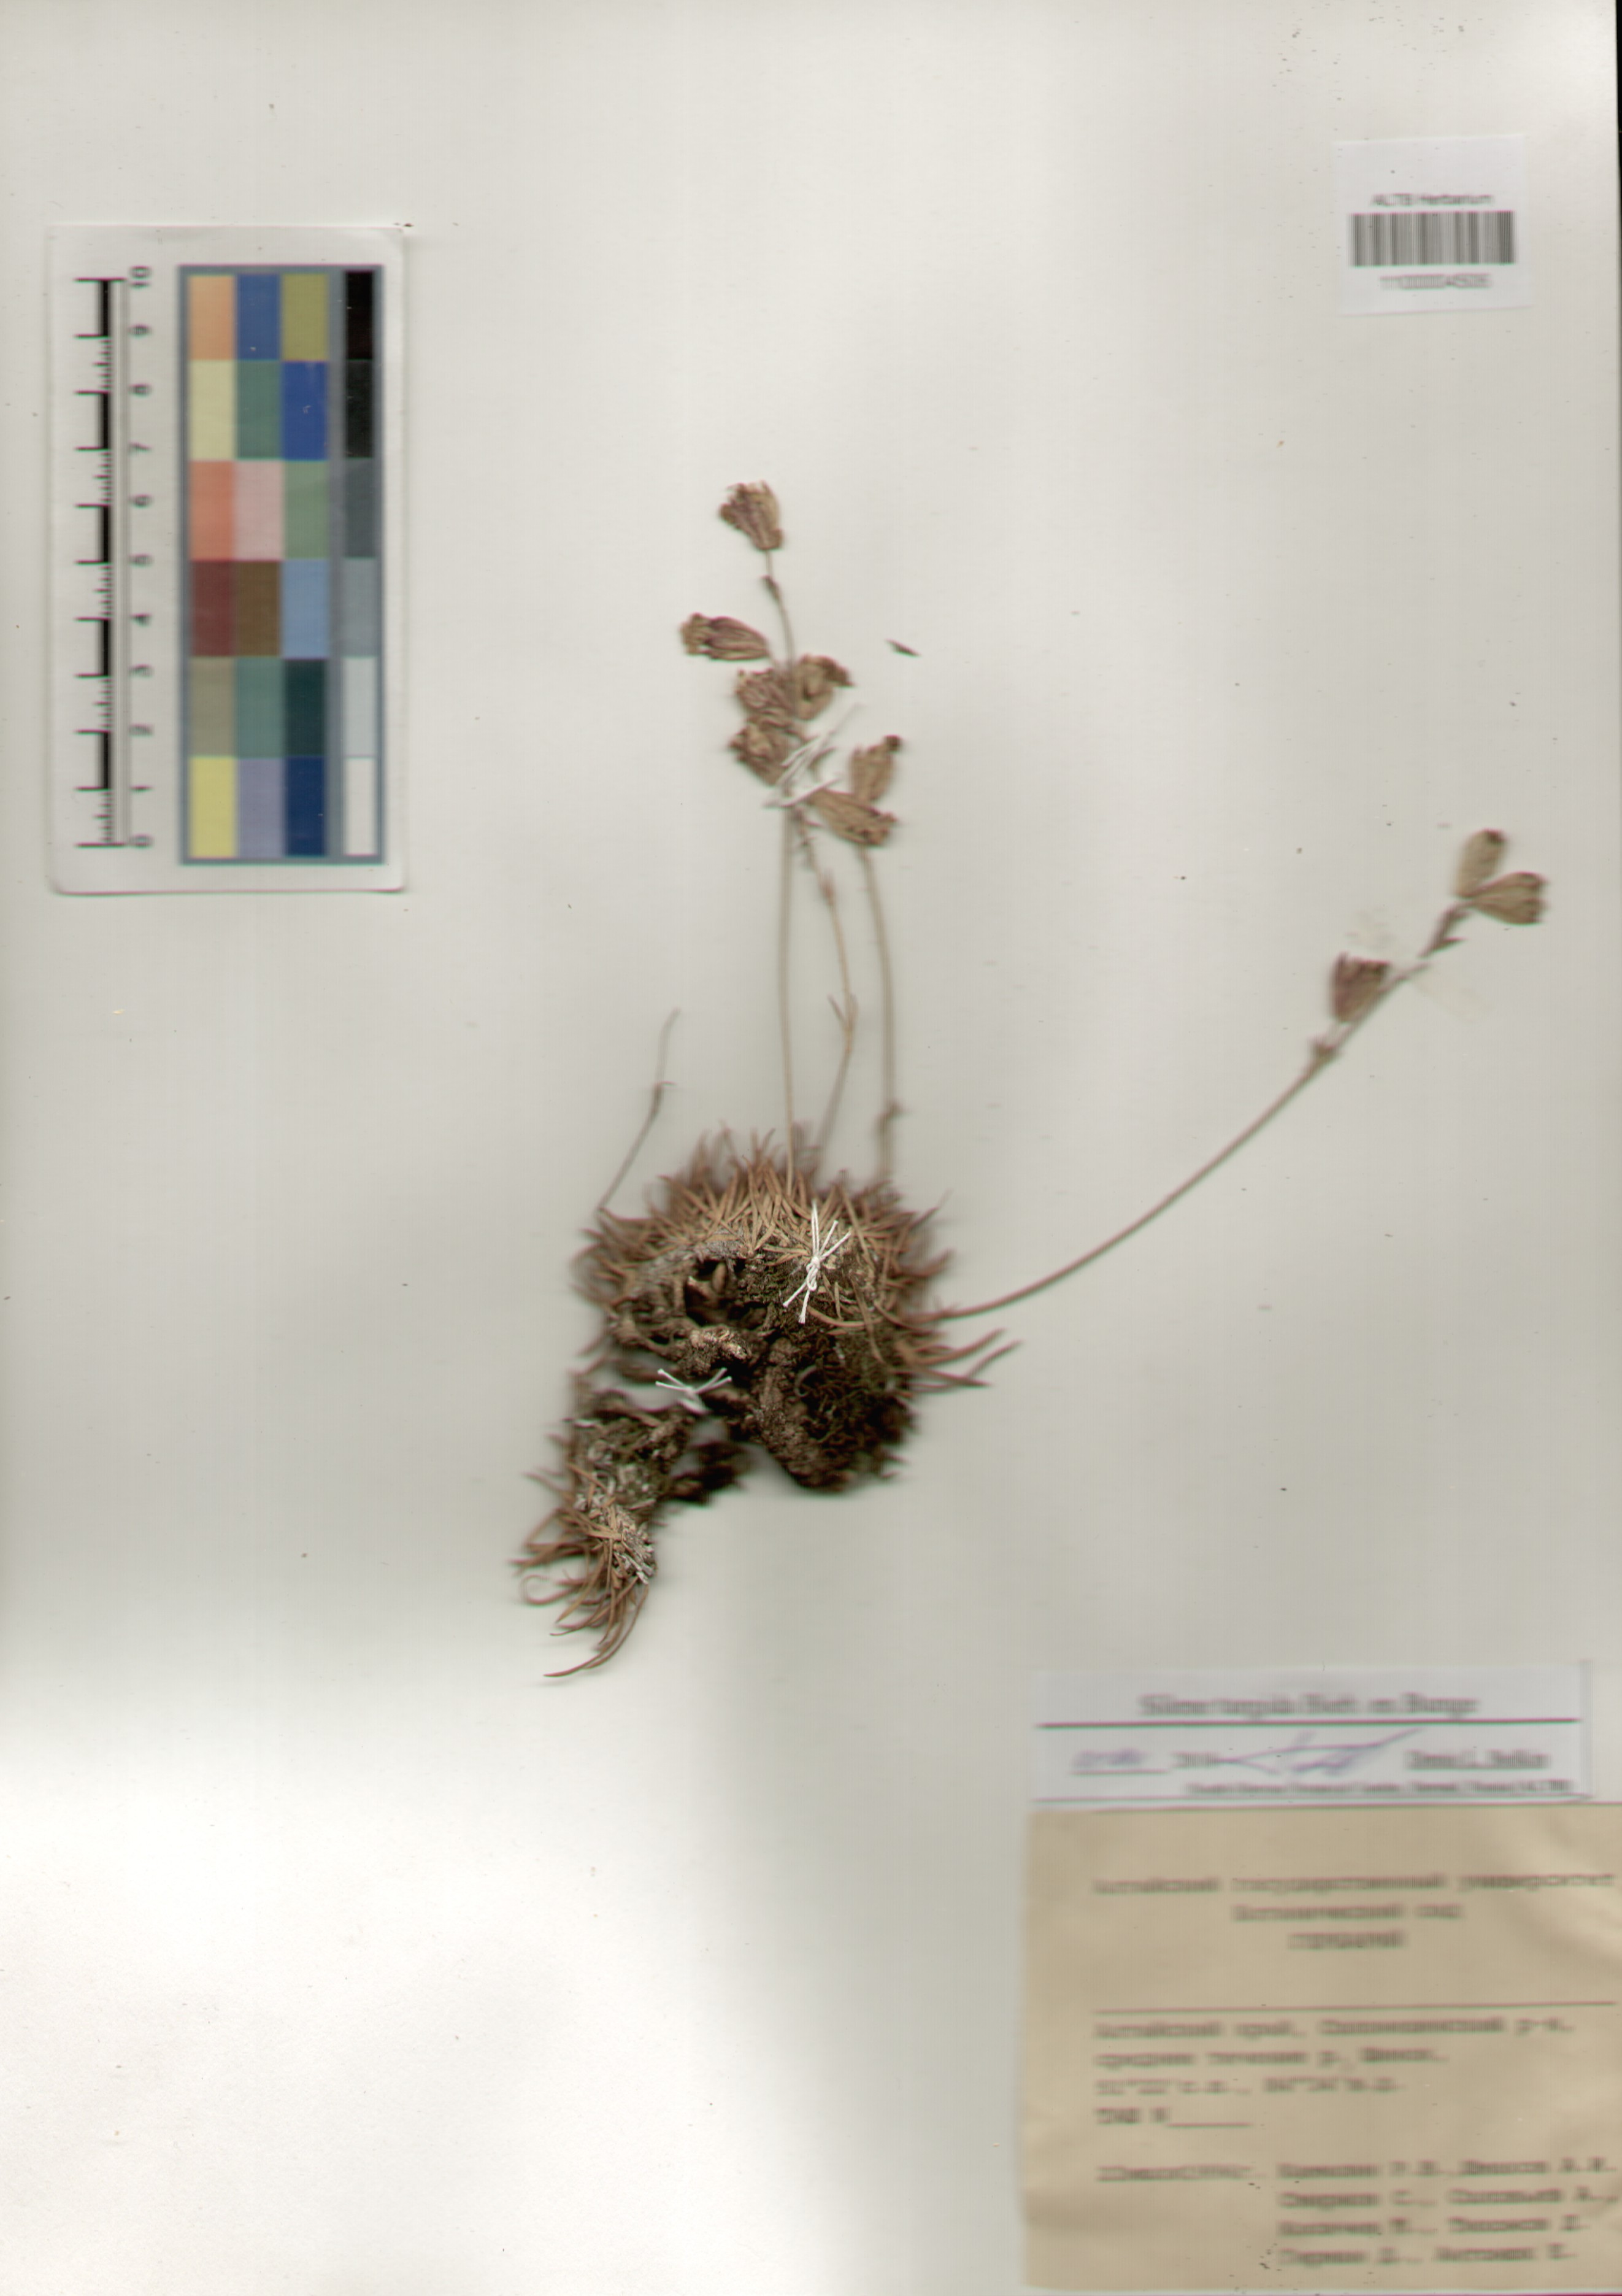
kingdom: Plantae
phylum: Tracheophyta
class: Magnoliopsida
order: Caryophyllales
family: Caryophyllaceae
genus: Silene
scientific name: Silene turgida
